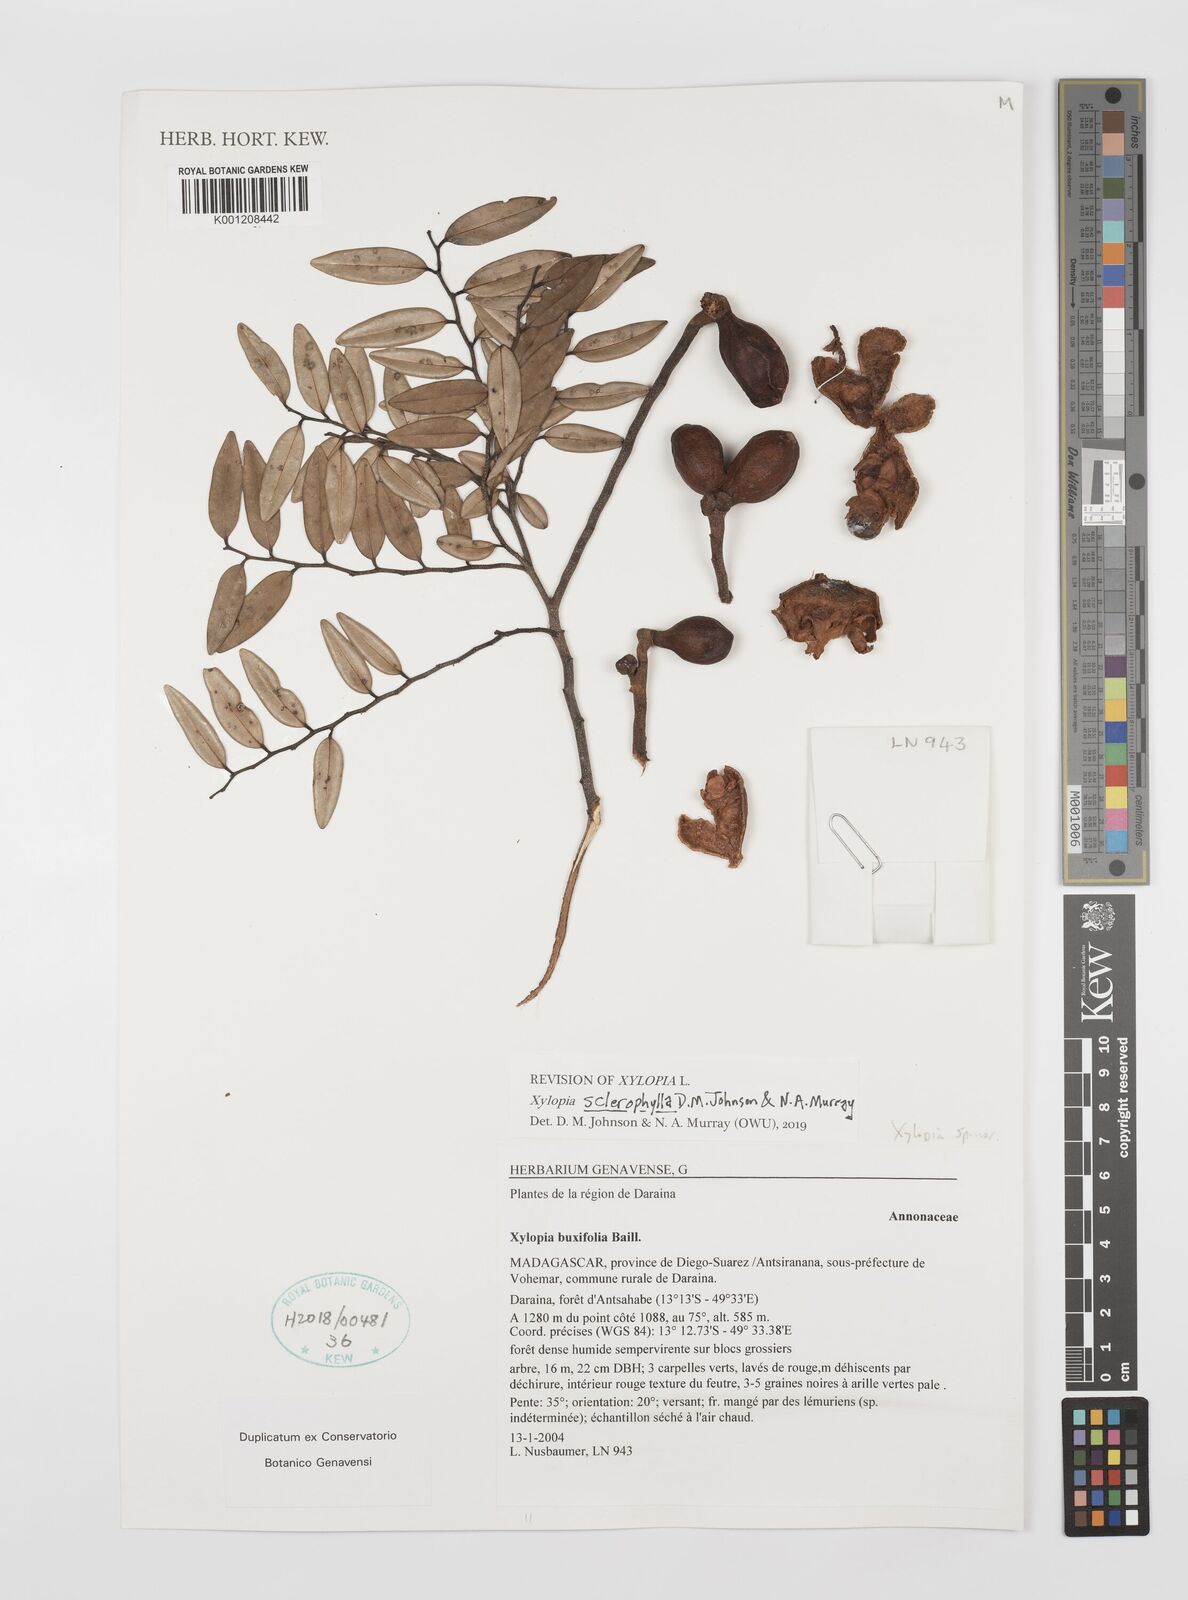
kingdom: Plantae
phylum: Tracheophyta
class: Magnoliopsida
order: Magnoliales
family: Annonaceae
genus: Xylopia
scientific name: Xylopia buxifolia
